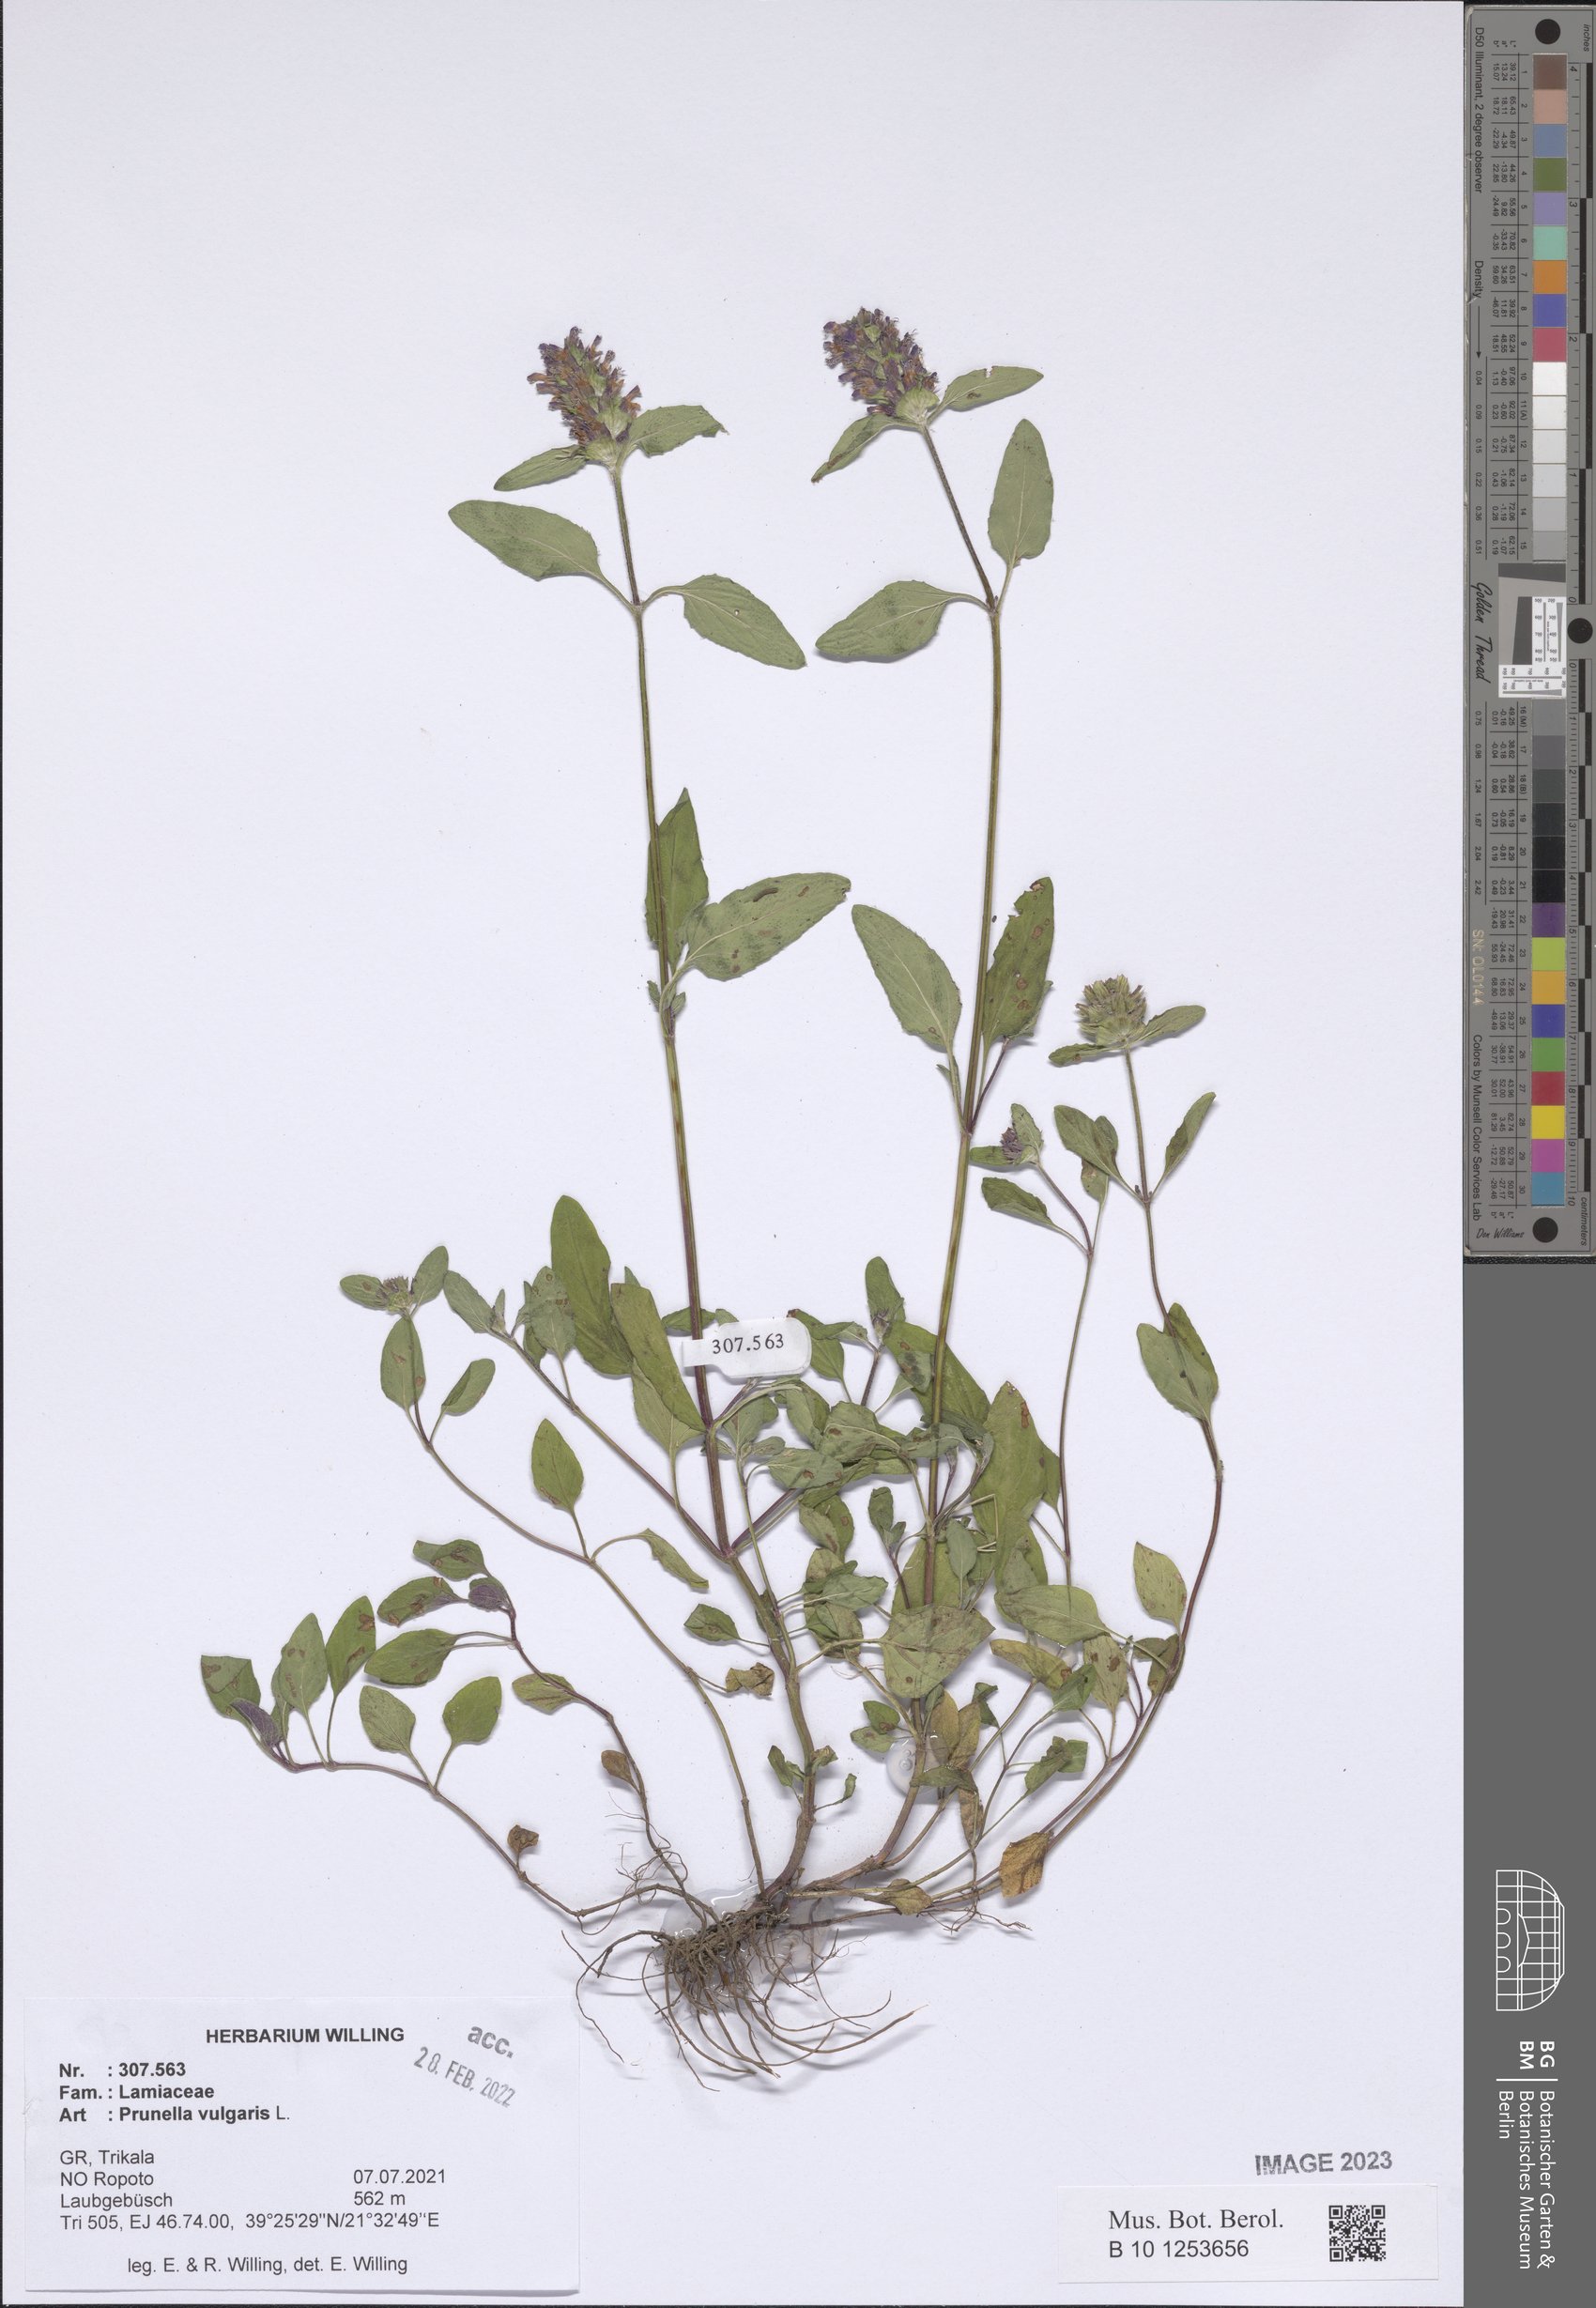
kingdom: Plantae
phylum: Tracheophyta
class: Magnoliopsida
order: Lamiales
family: Lamiaceae
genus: Prunella
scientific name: Prunella vulgaris
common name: Heal-all
